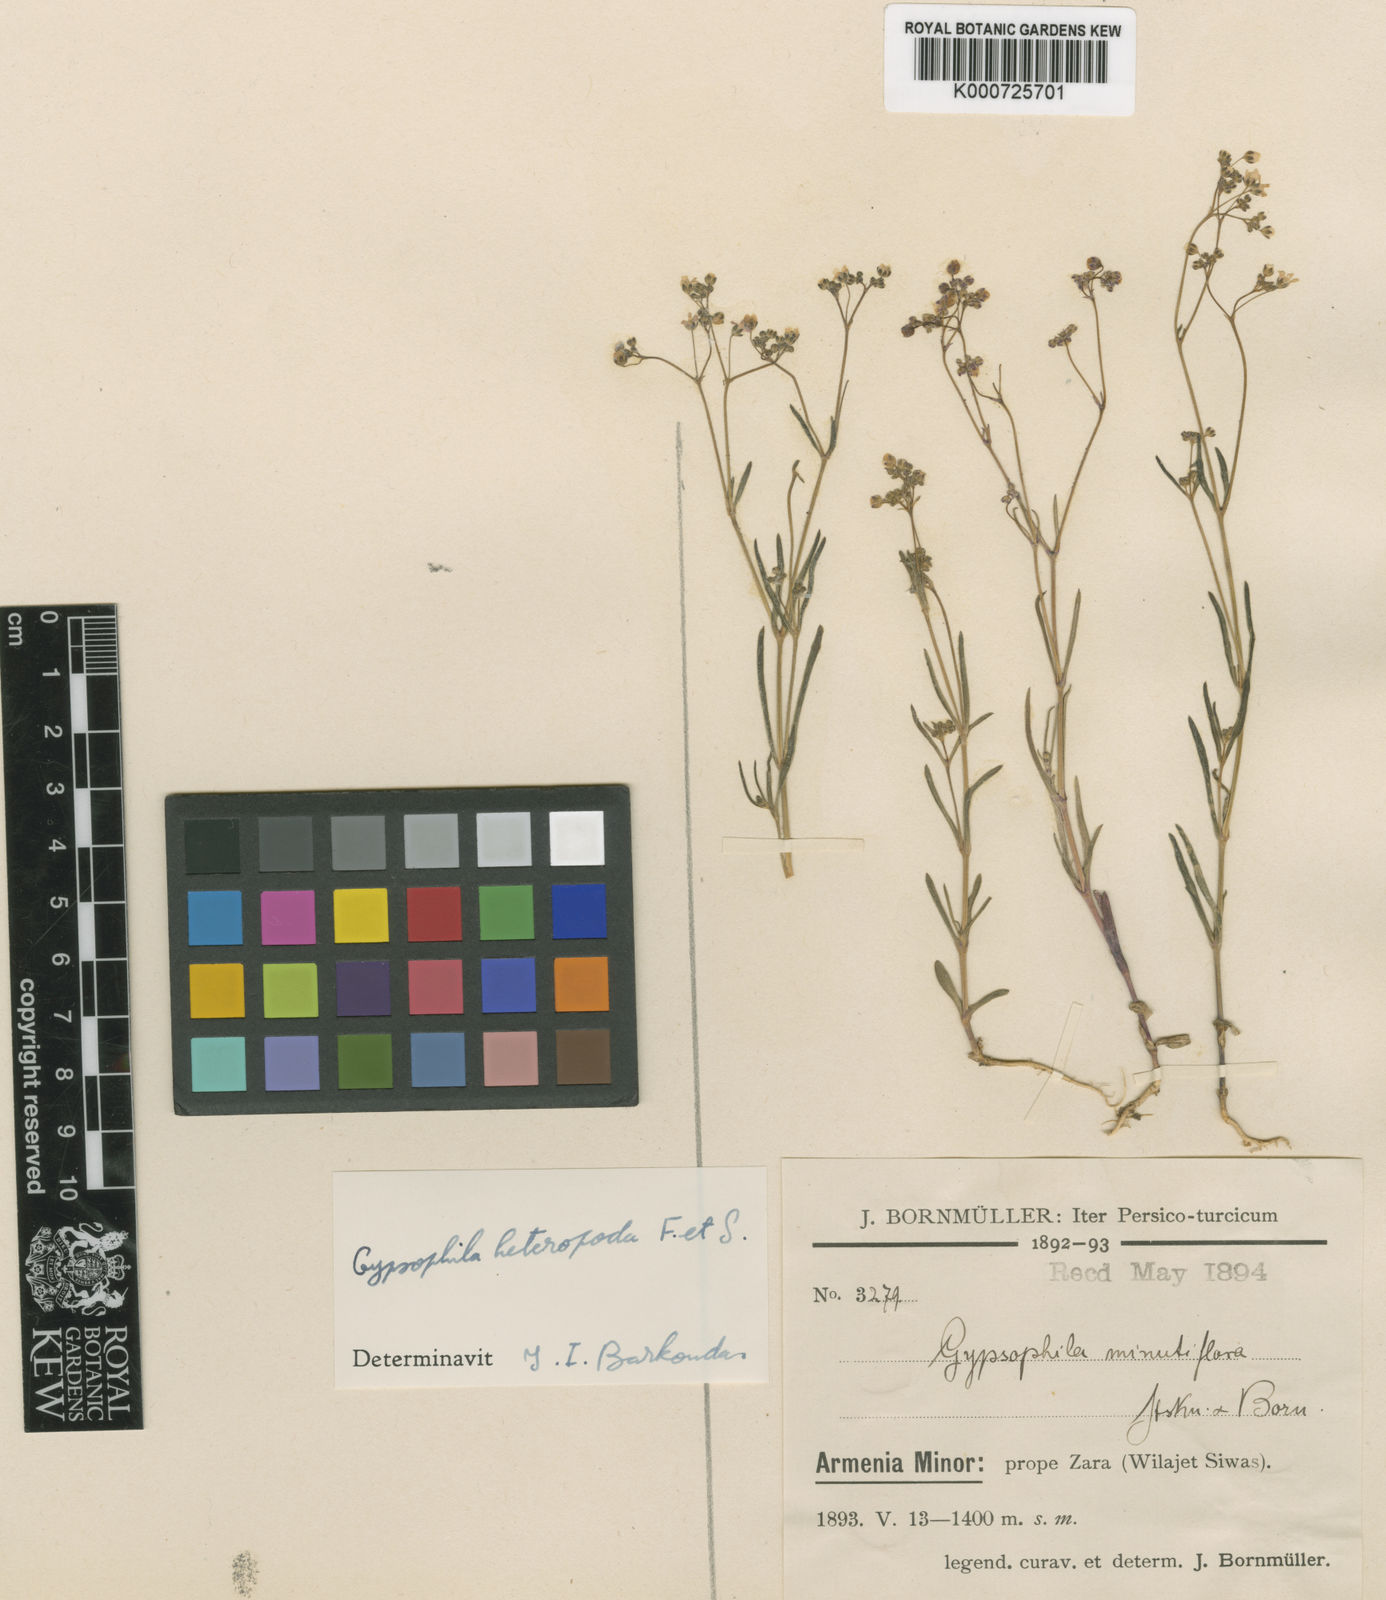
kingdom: Plantae
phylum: Tracheophyta
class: Magnoliopsida
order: Caryophyllales
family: Caryophyllaceae
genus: Gypsophila
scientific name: Gypsophila heteropoda
